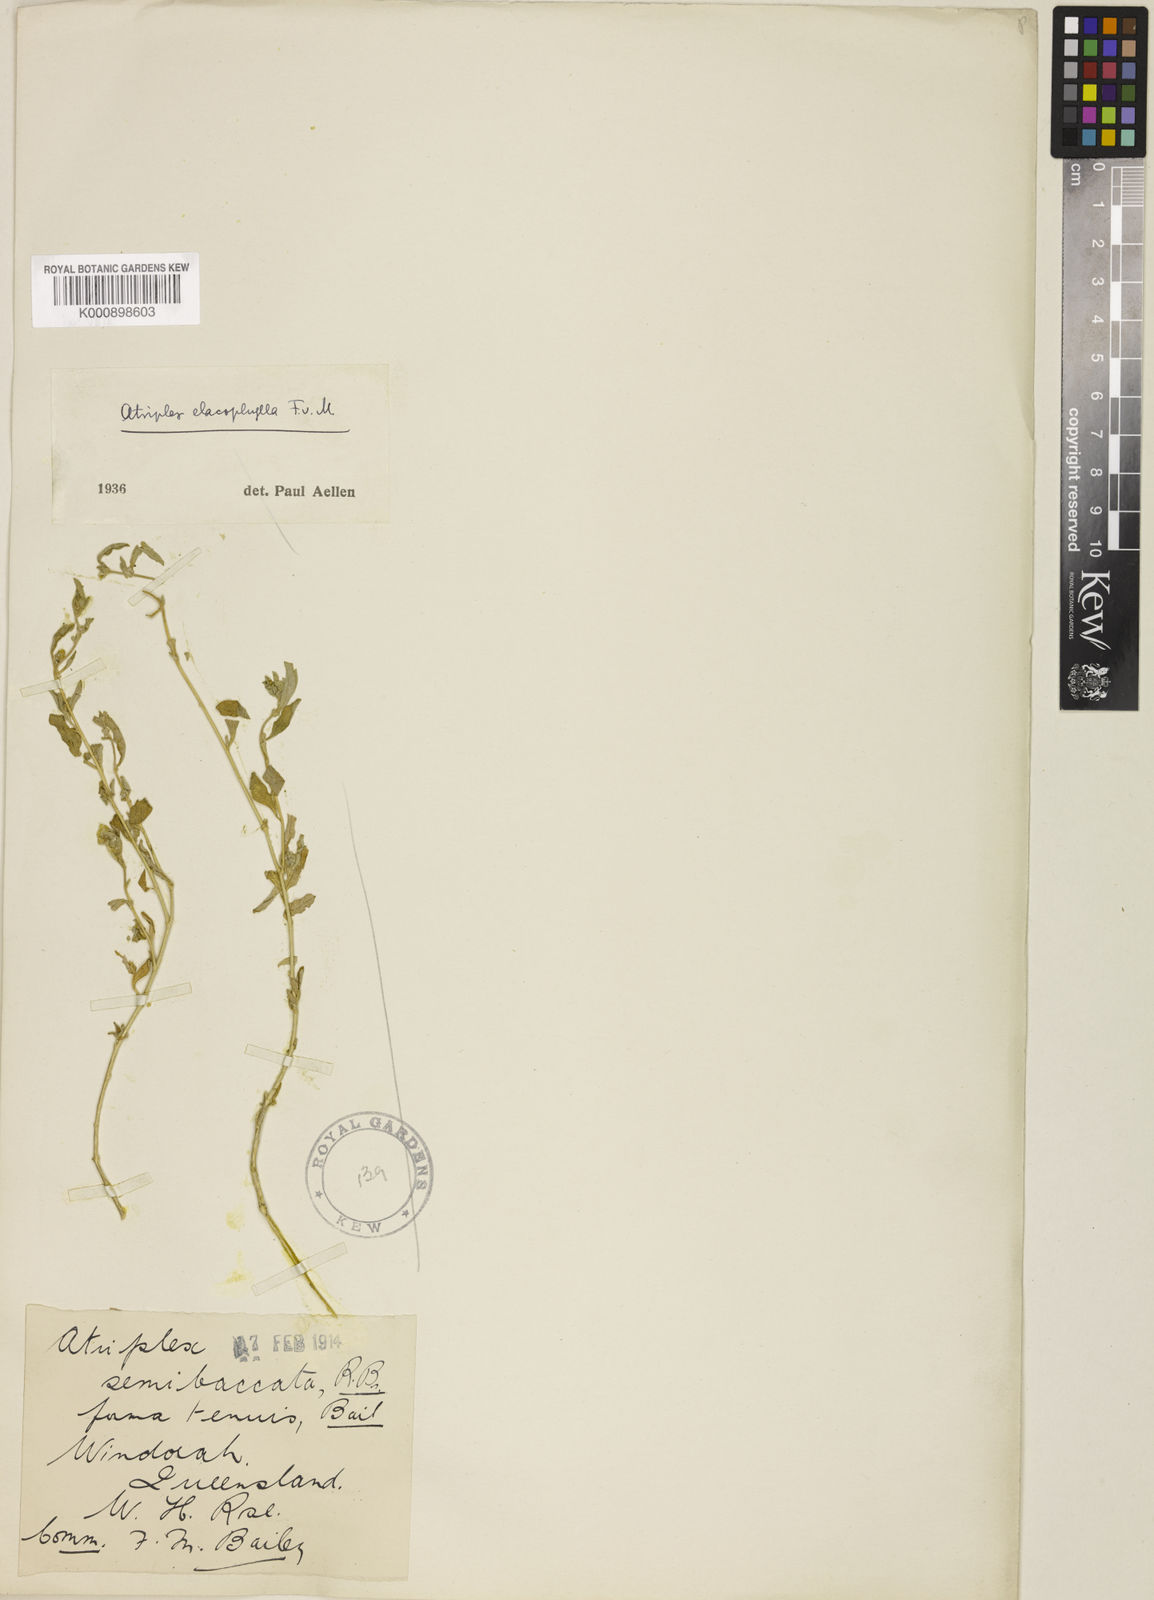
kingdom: Plantae
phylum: Tracheophyta
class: Magnoliopsida
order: Caryophyllales
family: Amaranthaceae
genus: Atriplex
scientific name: Atriplex semibaccata
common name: Australian saltbush
